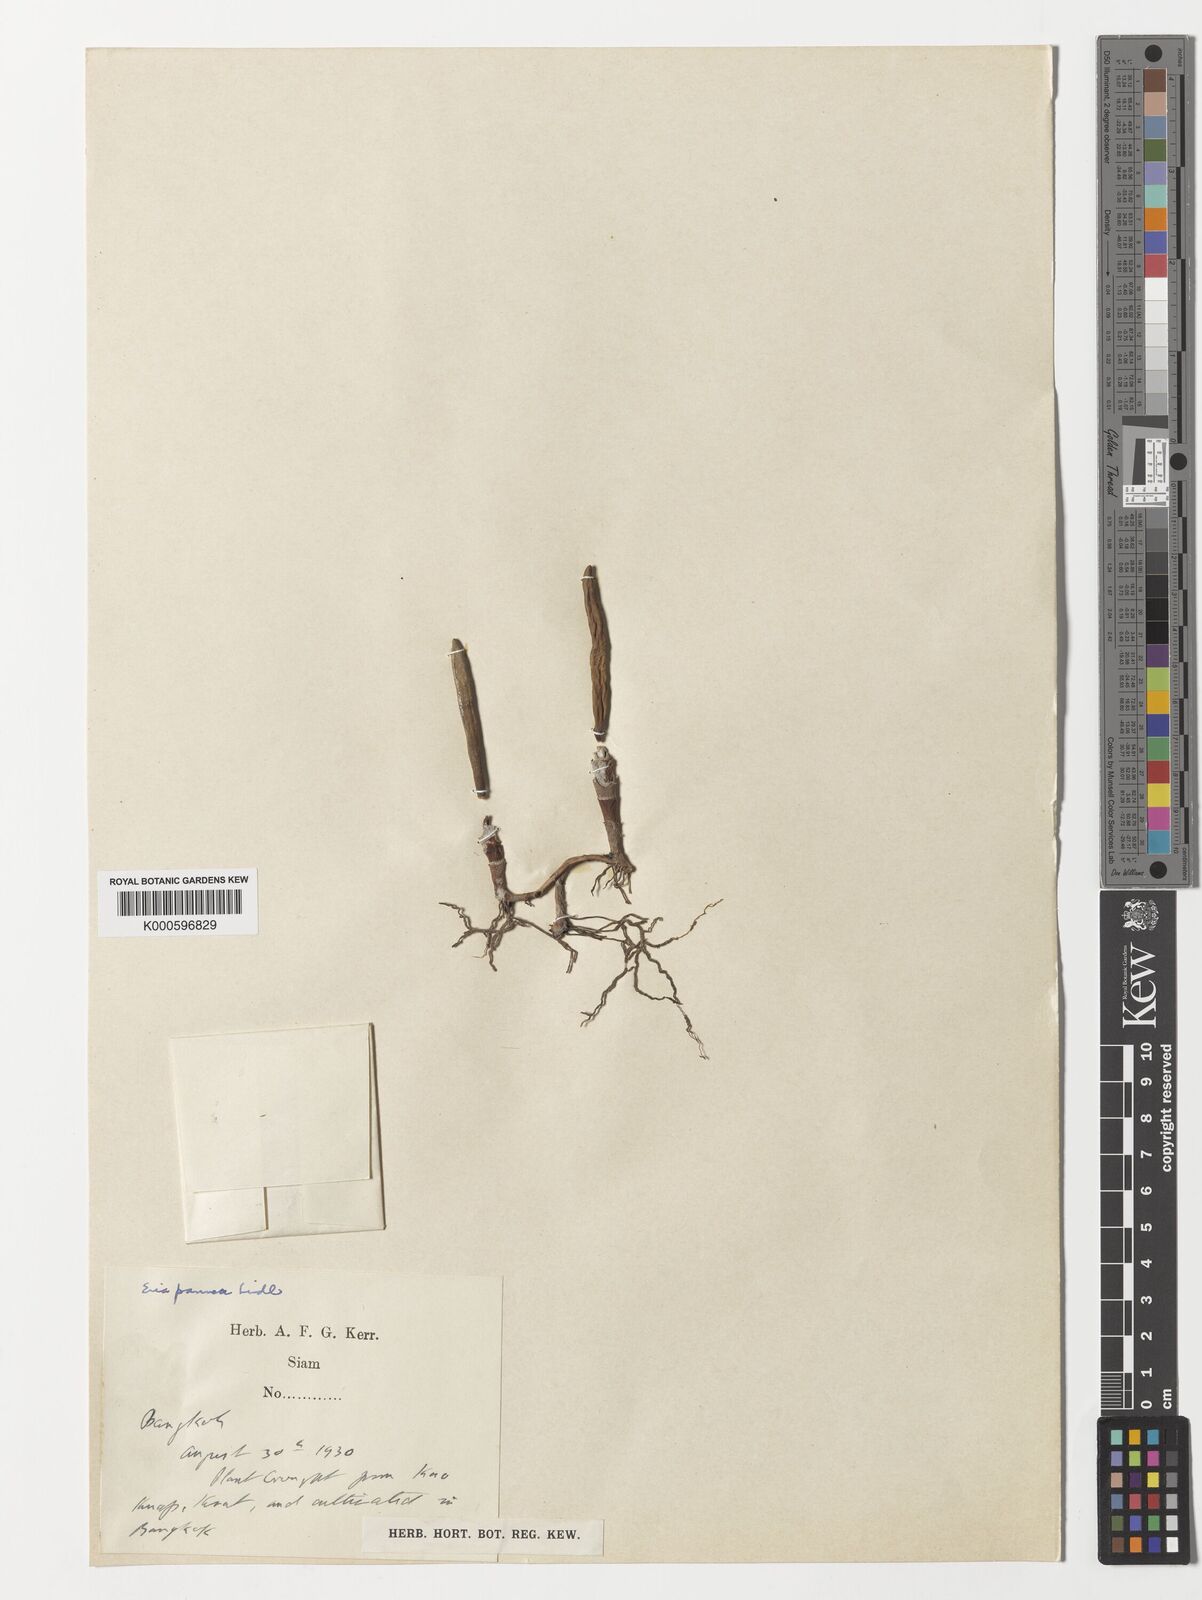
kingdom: Plantae
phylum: Tracheophyta
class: Liliopsida
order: Asparagales
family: Orchidaceae
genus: Strongyleria
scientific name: Strongyleria pannea
